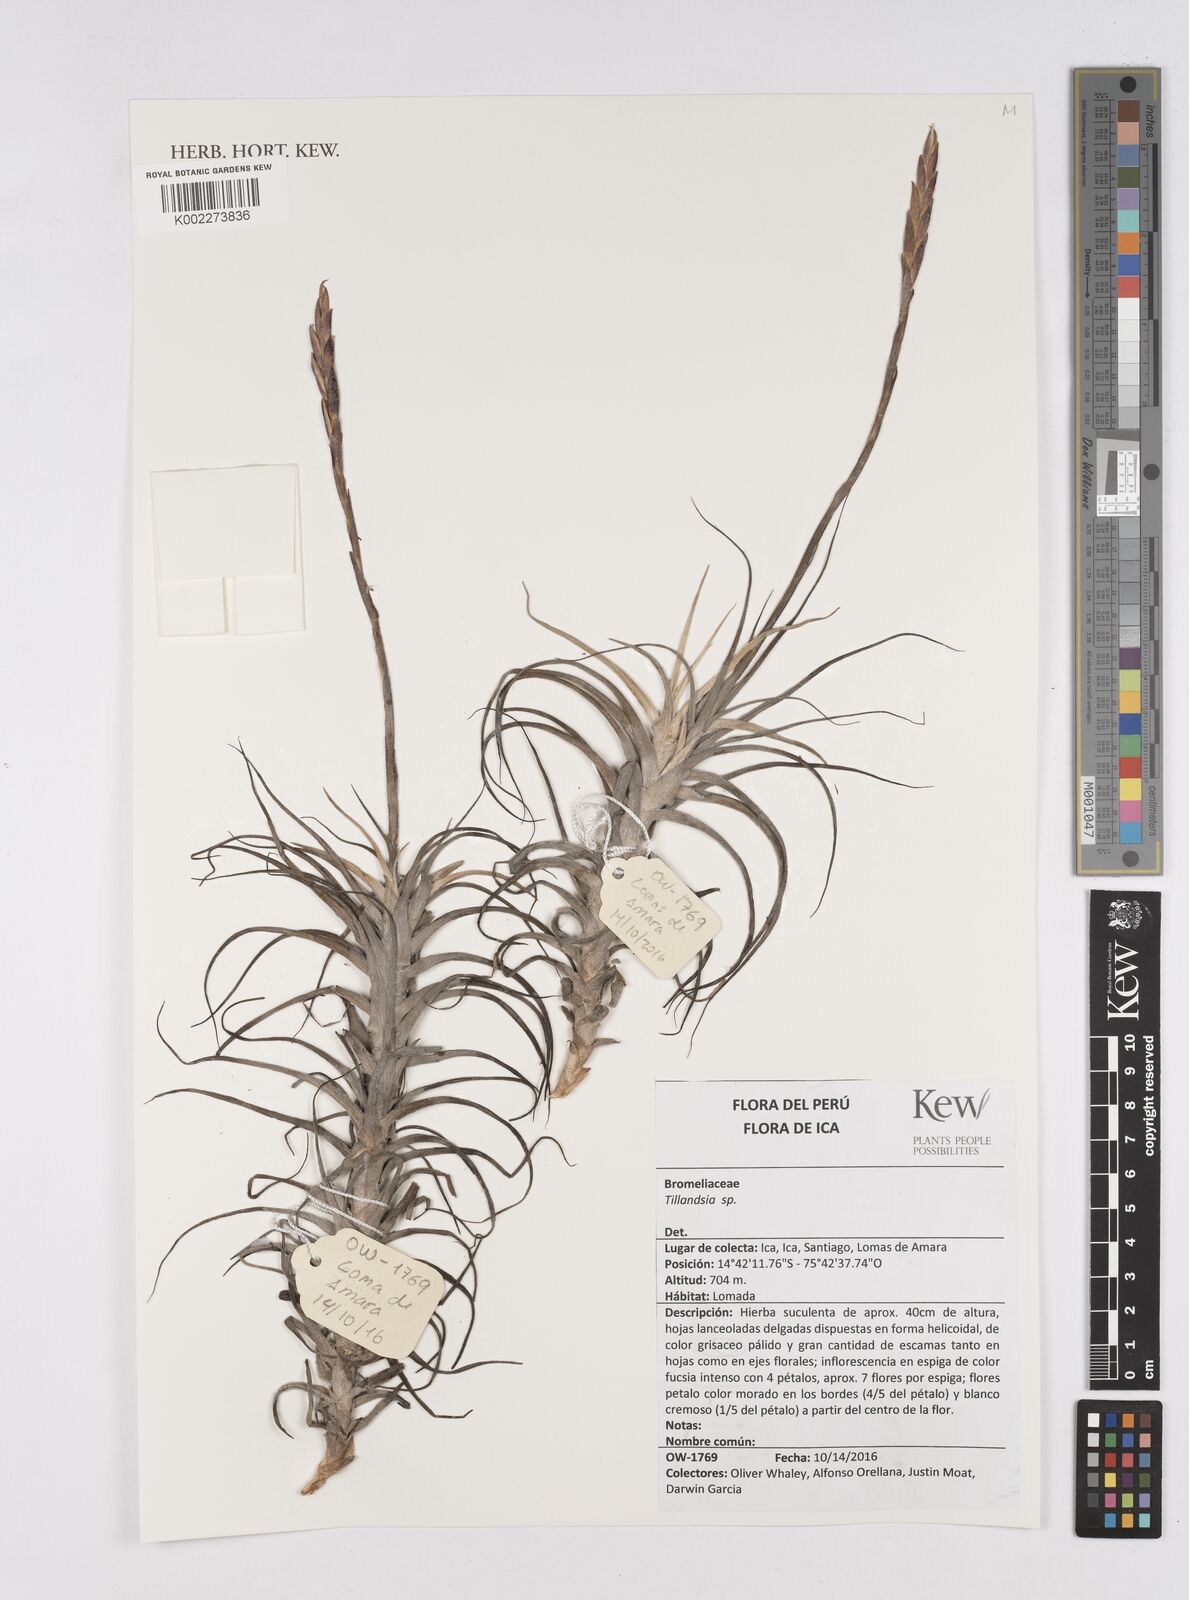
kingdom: Plantae
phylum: Tracheophyta
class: Liliopsida
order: Poales
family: Bromeliaceae
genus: Tillandsia
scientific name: Tillandsia
